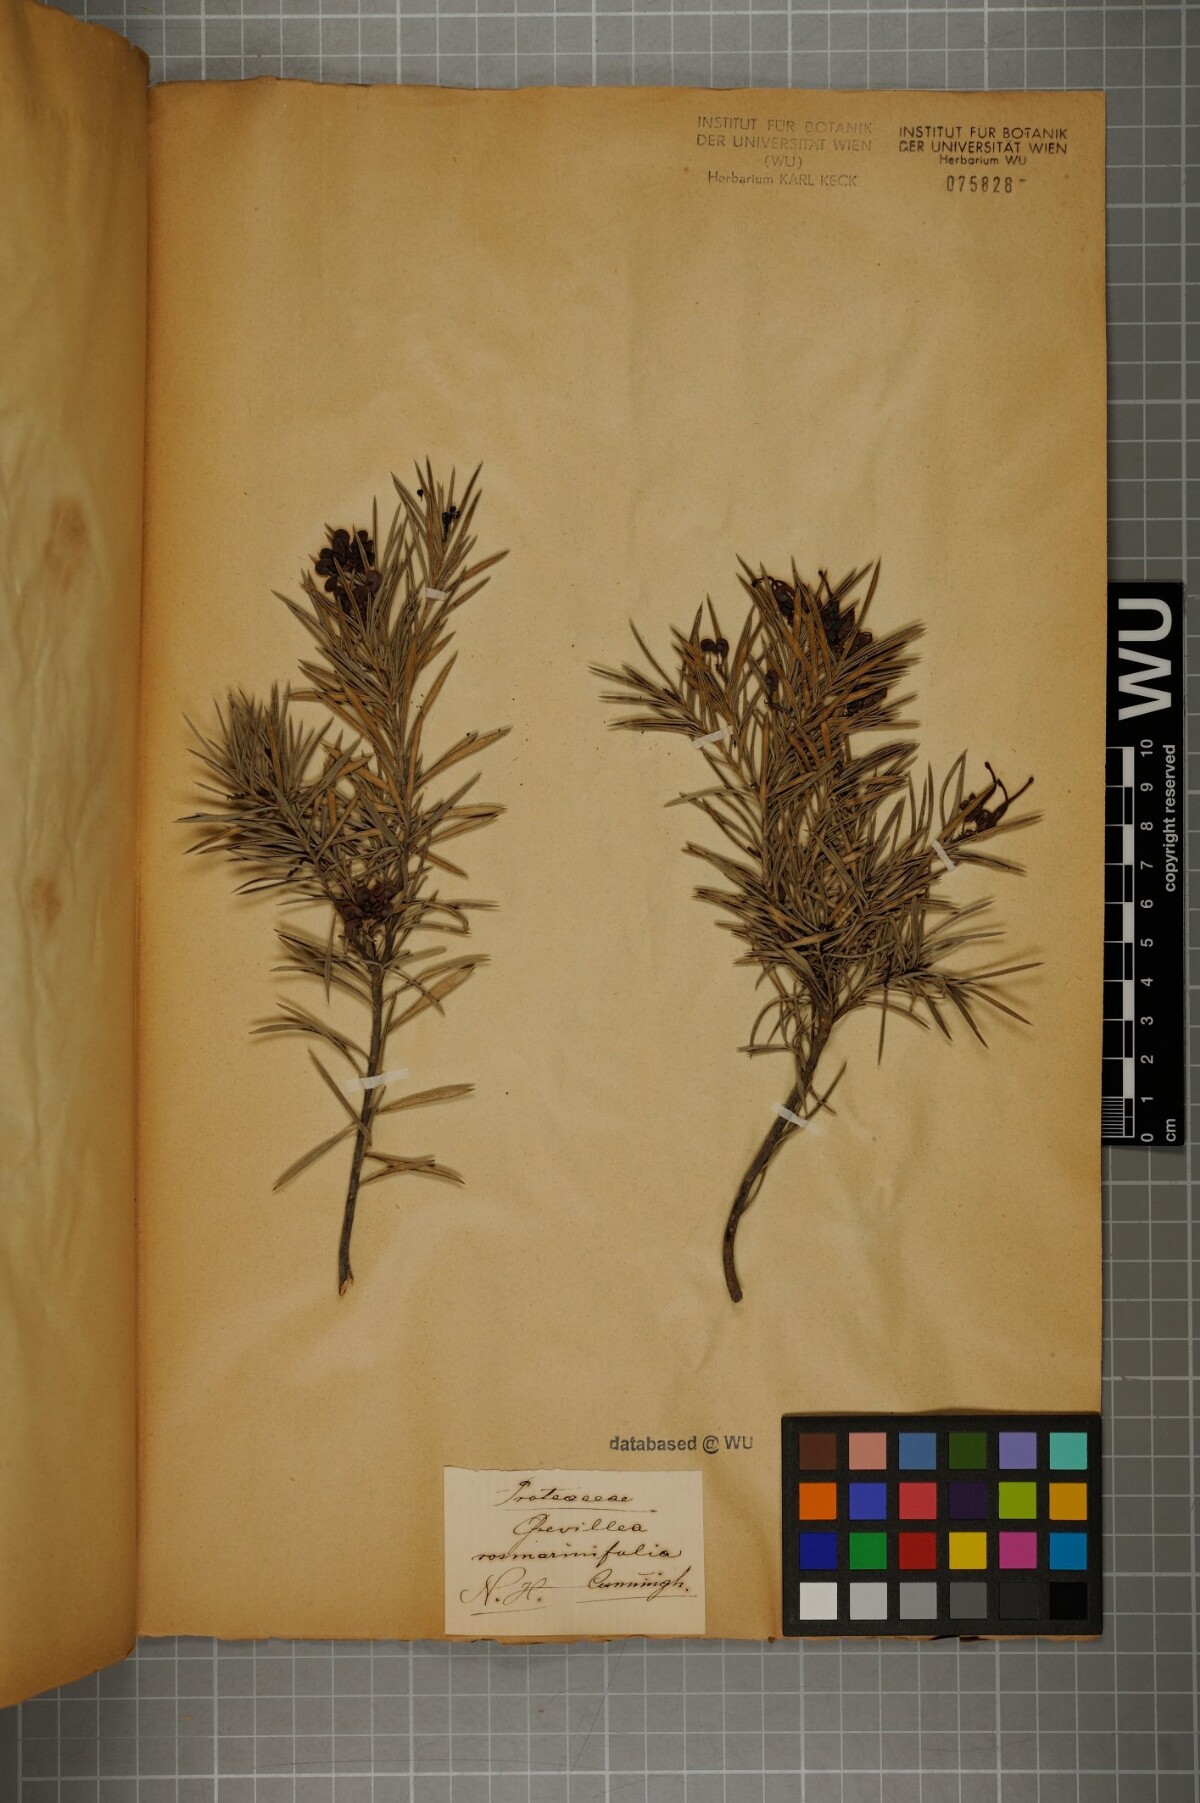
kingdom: Plantae
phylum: Tracheophyta
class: Magnoliopsida
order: Proteales
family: Proteaceae
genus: Grevillea
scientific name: Grevillea rosmarinifolia
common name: Rosemary grevillea
